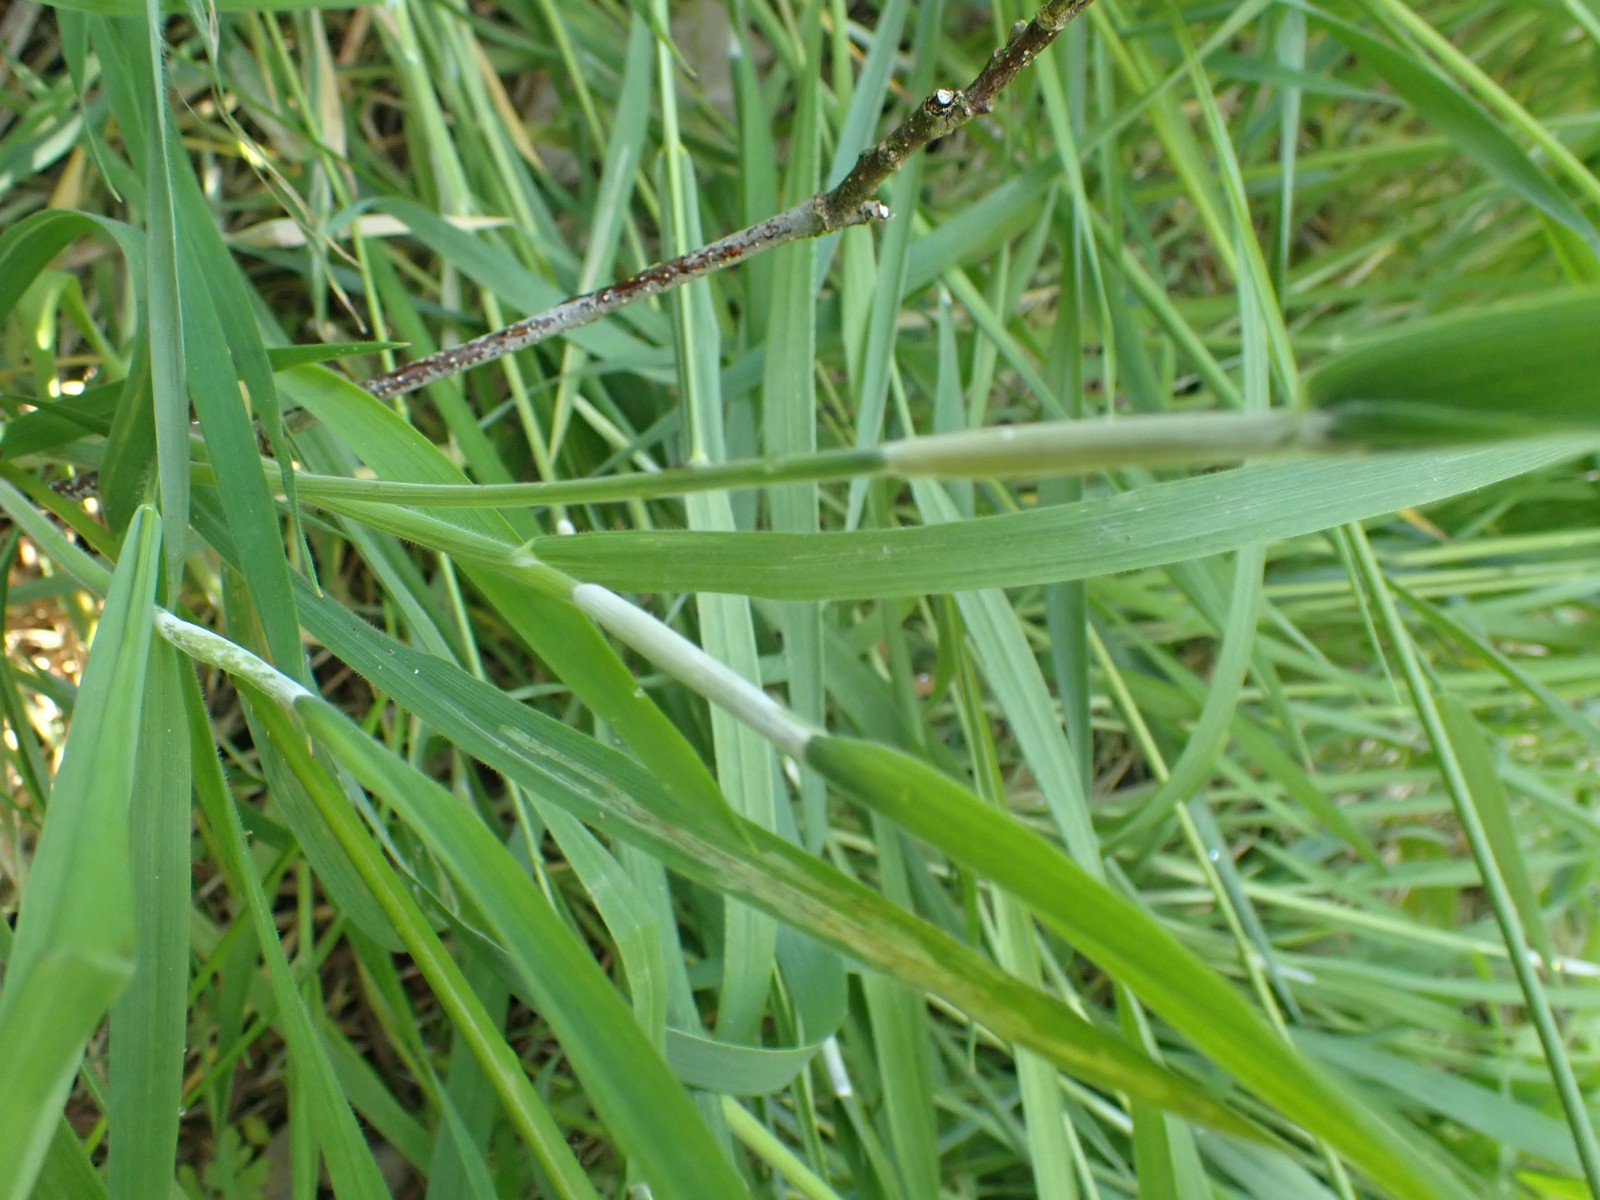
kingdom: Fungi
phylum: Ascomycota
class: Sordariomycetes
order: Hypocreales
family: Clavicipitaceae
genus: Epichloe
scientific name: Epichloe clarkii
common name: fløjlsgræs-kernerør
